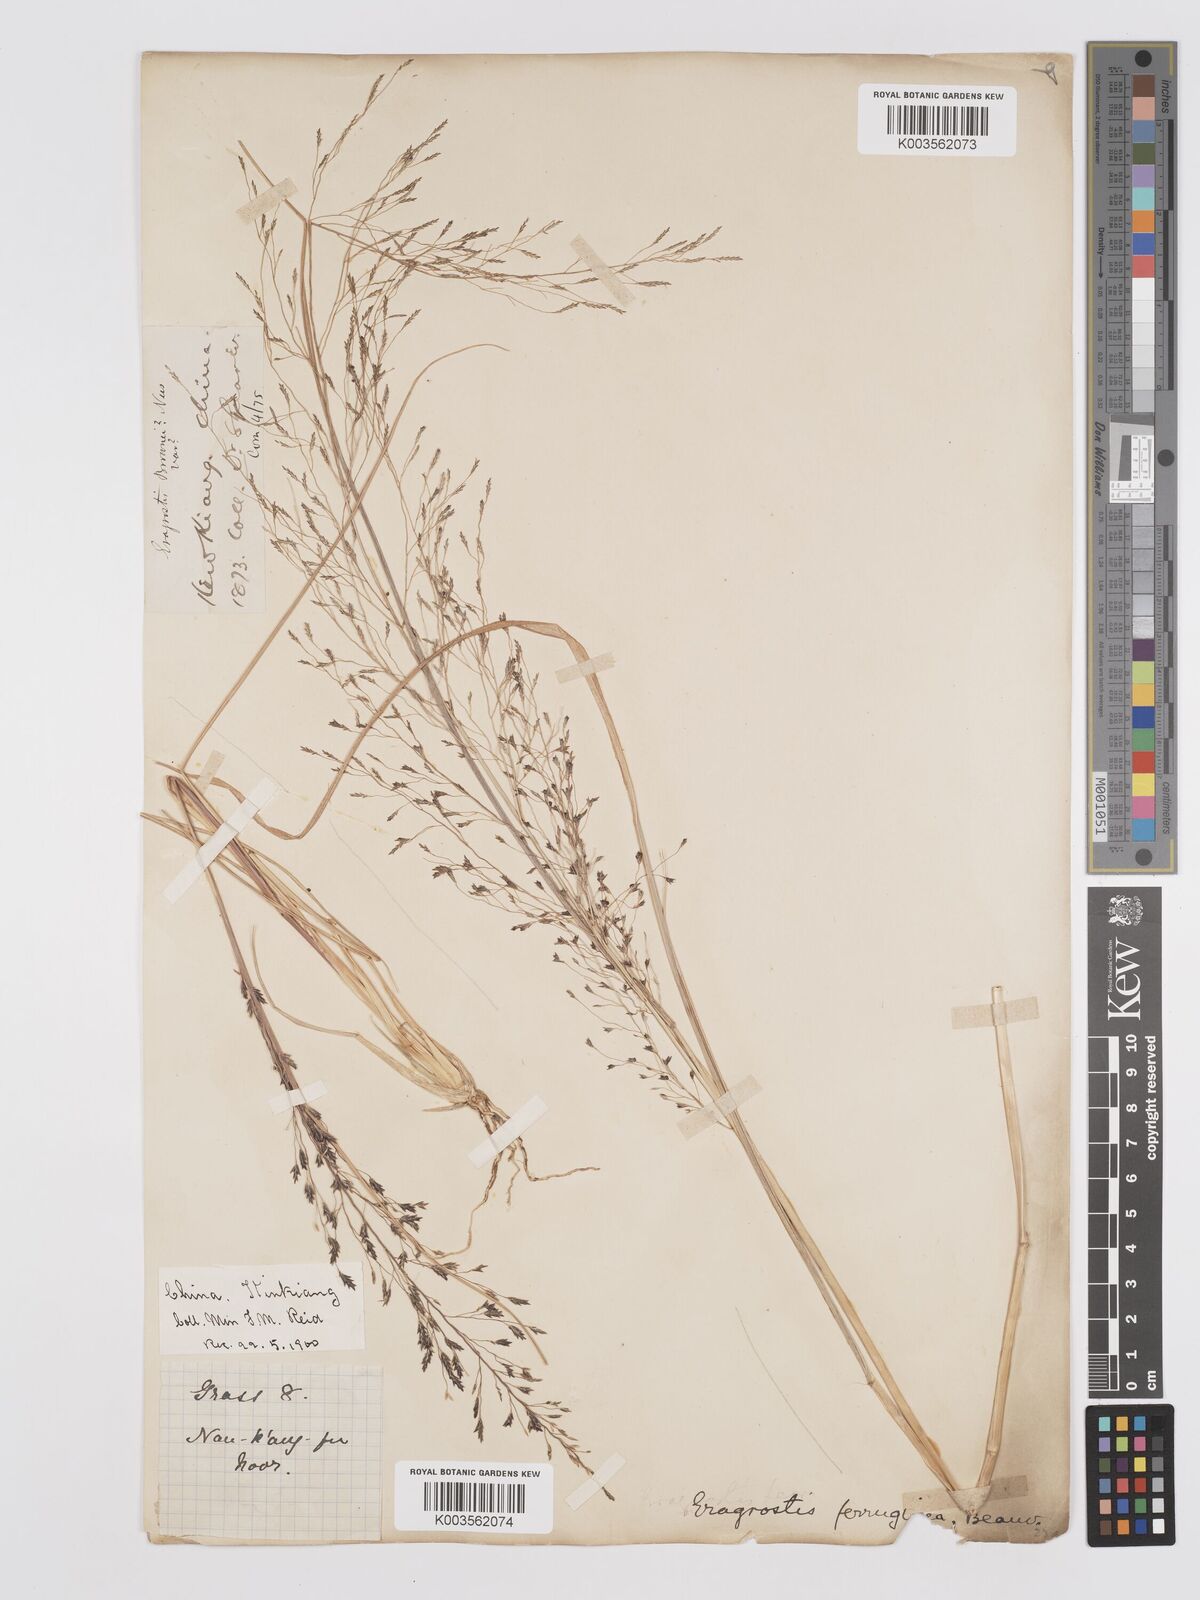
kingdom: Plantae
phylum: Tracheophyta
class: Liliopsida
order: Poales
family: Poaceae
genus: Eragrostis
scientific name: Eragrostis ferruginea
